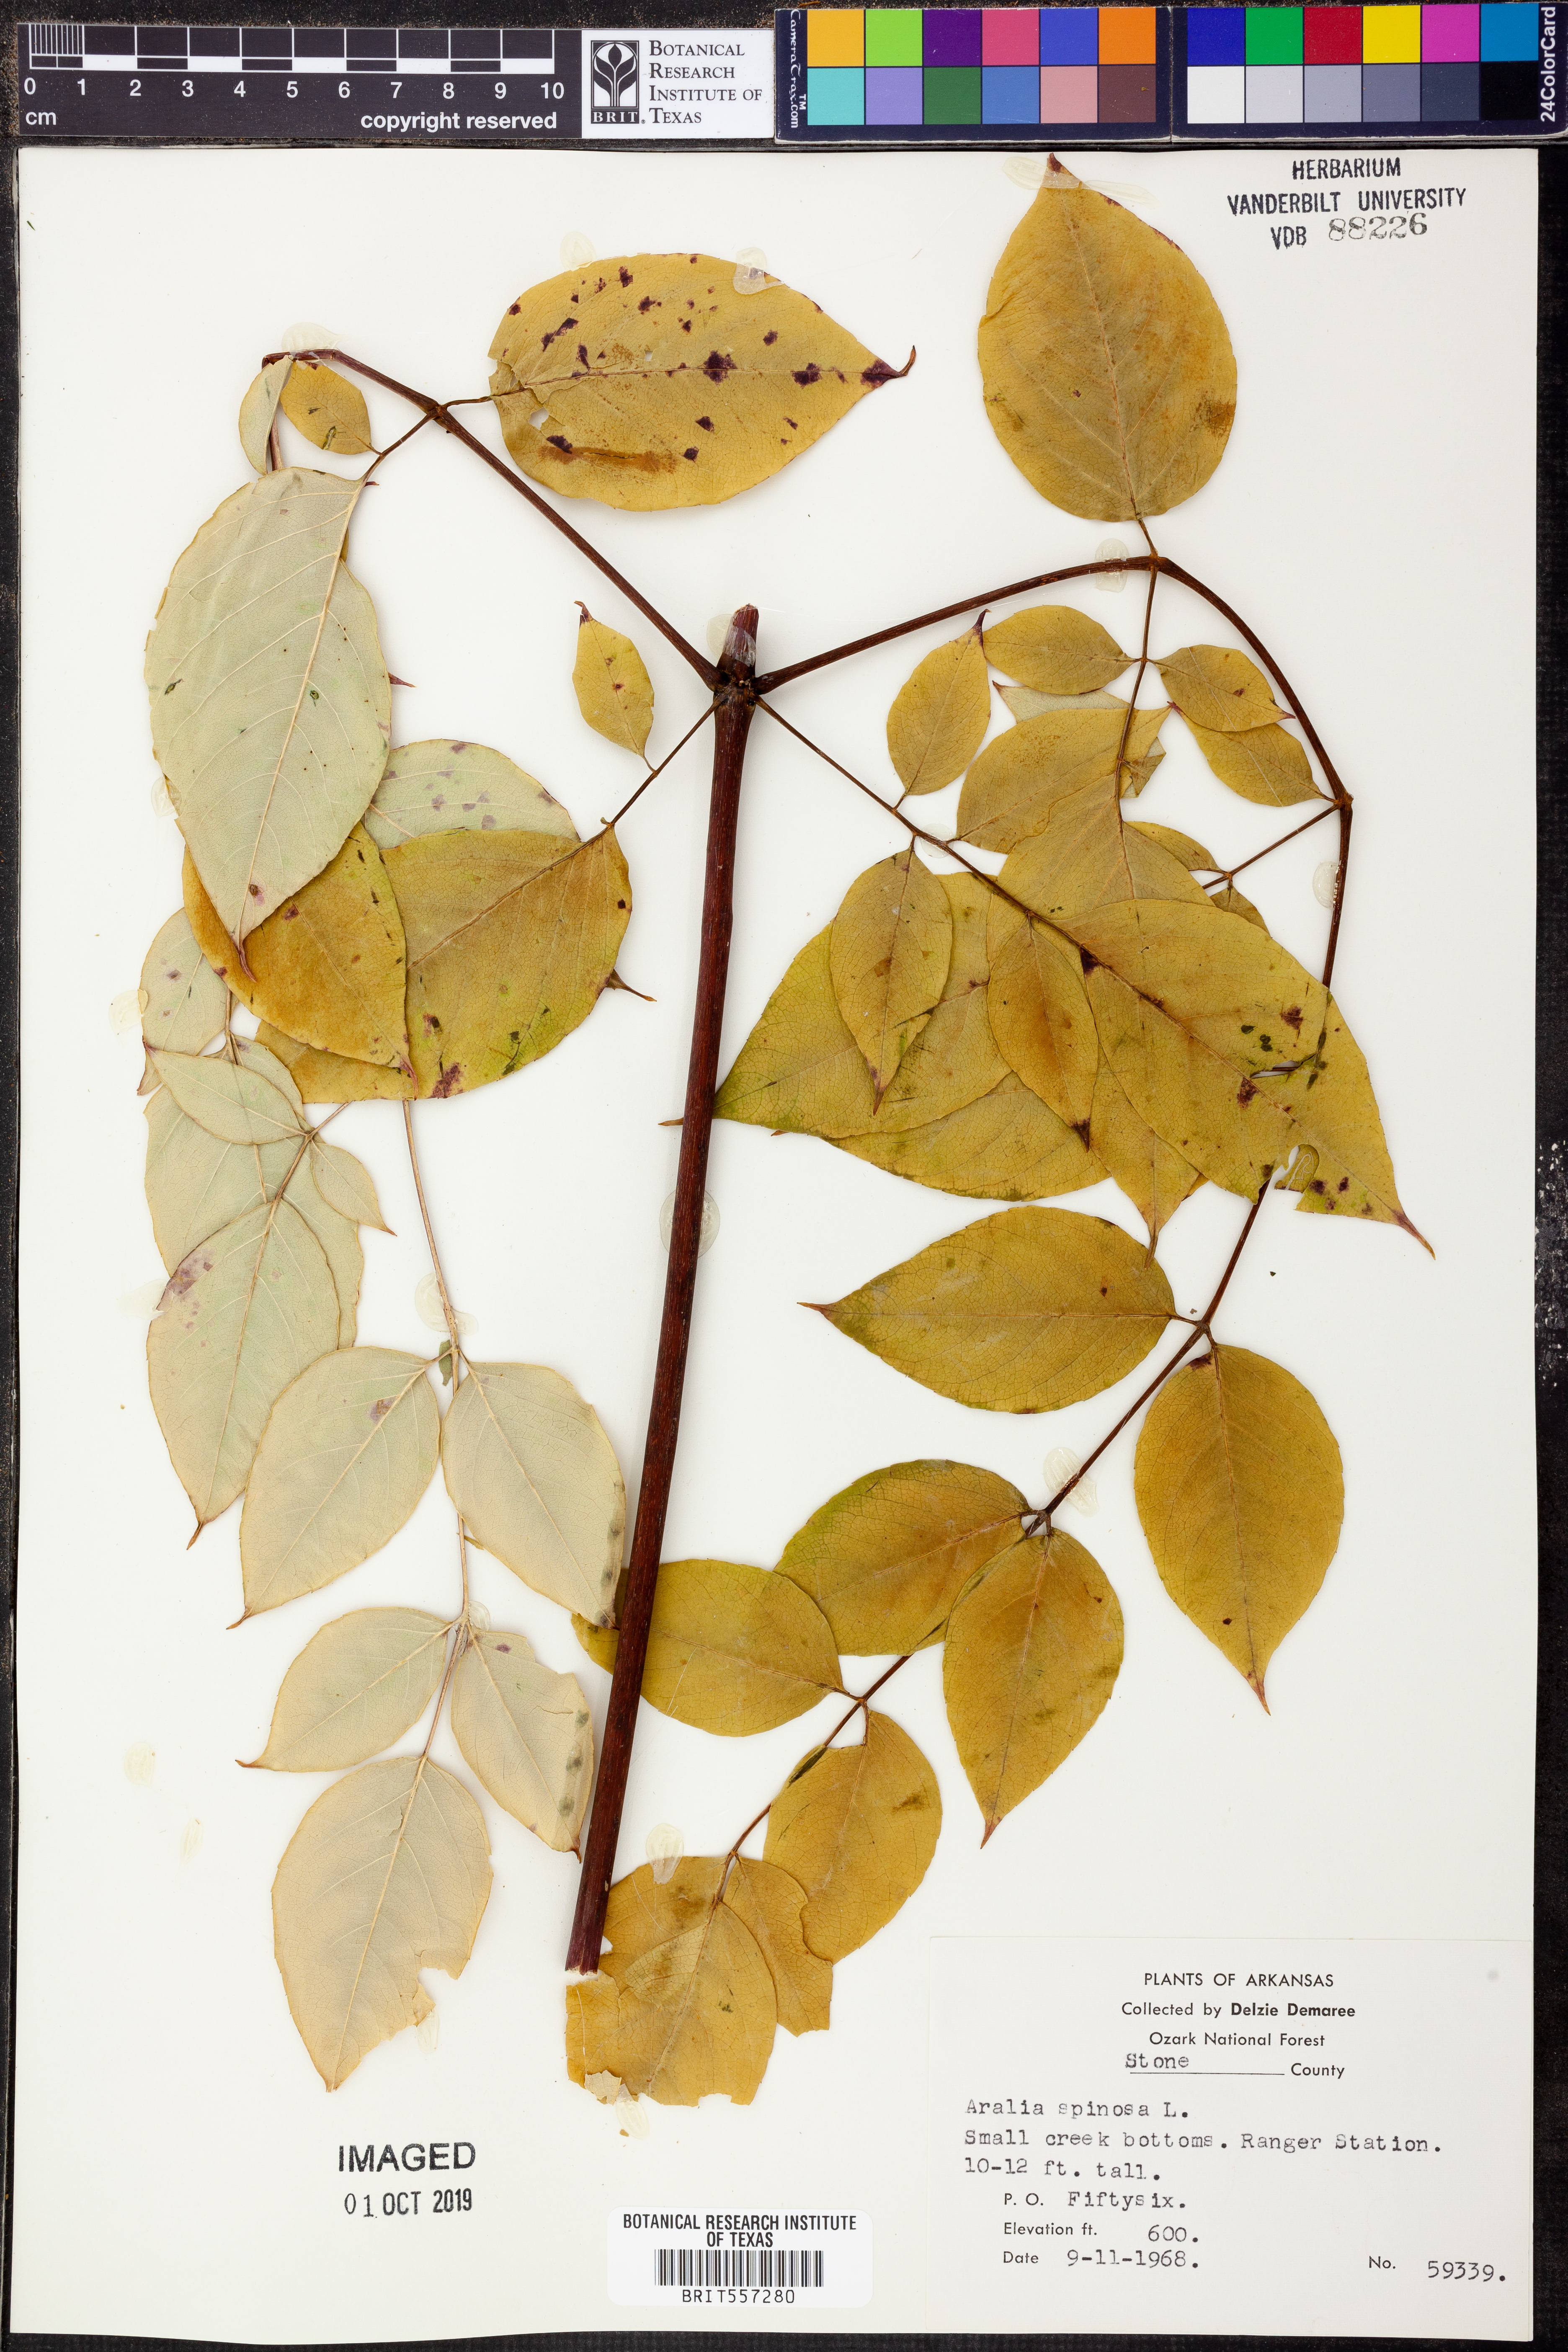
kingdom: Plantae
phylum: Tracheophyta
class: Magnoliopsida
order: Apiales
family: Araliaceae
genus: Aralia
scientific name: Aralia spinosa
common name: Hercules'-club
